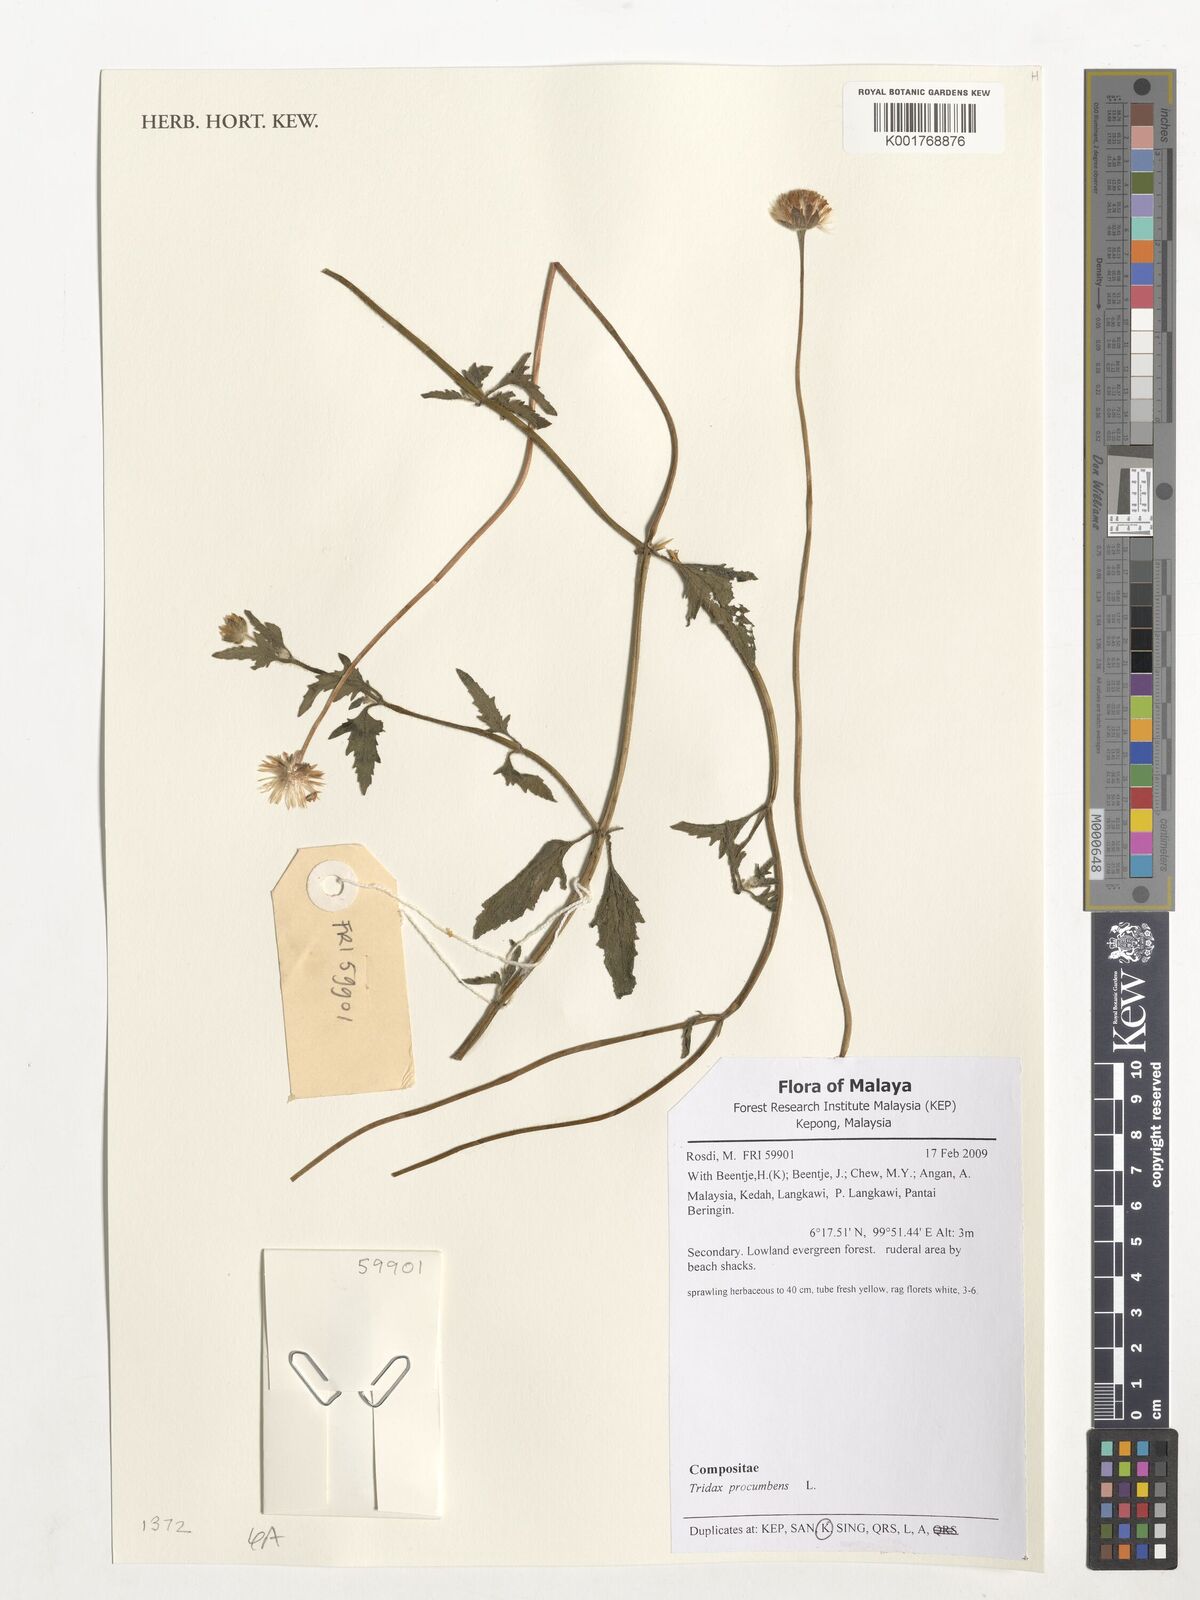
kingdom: Plantae
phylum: Tracheophyta
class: Magnoliopsida
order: Asterales
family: Asteraceae
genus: Tridax
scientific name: Tridax procumbens
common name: Coatbuttons
